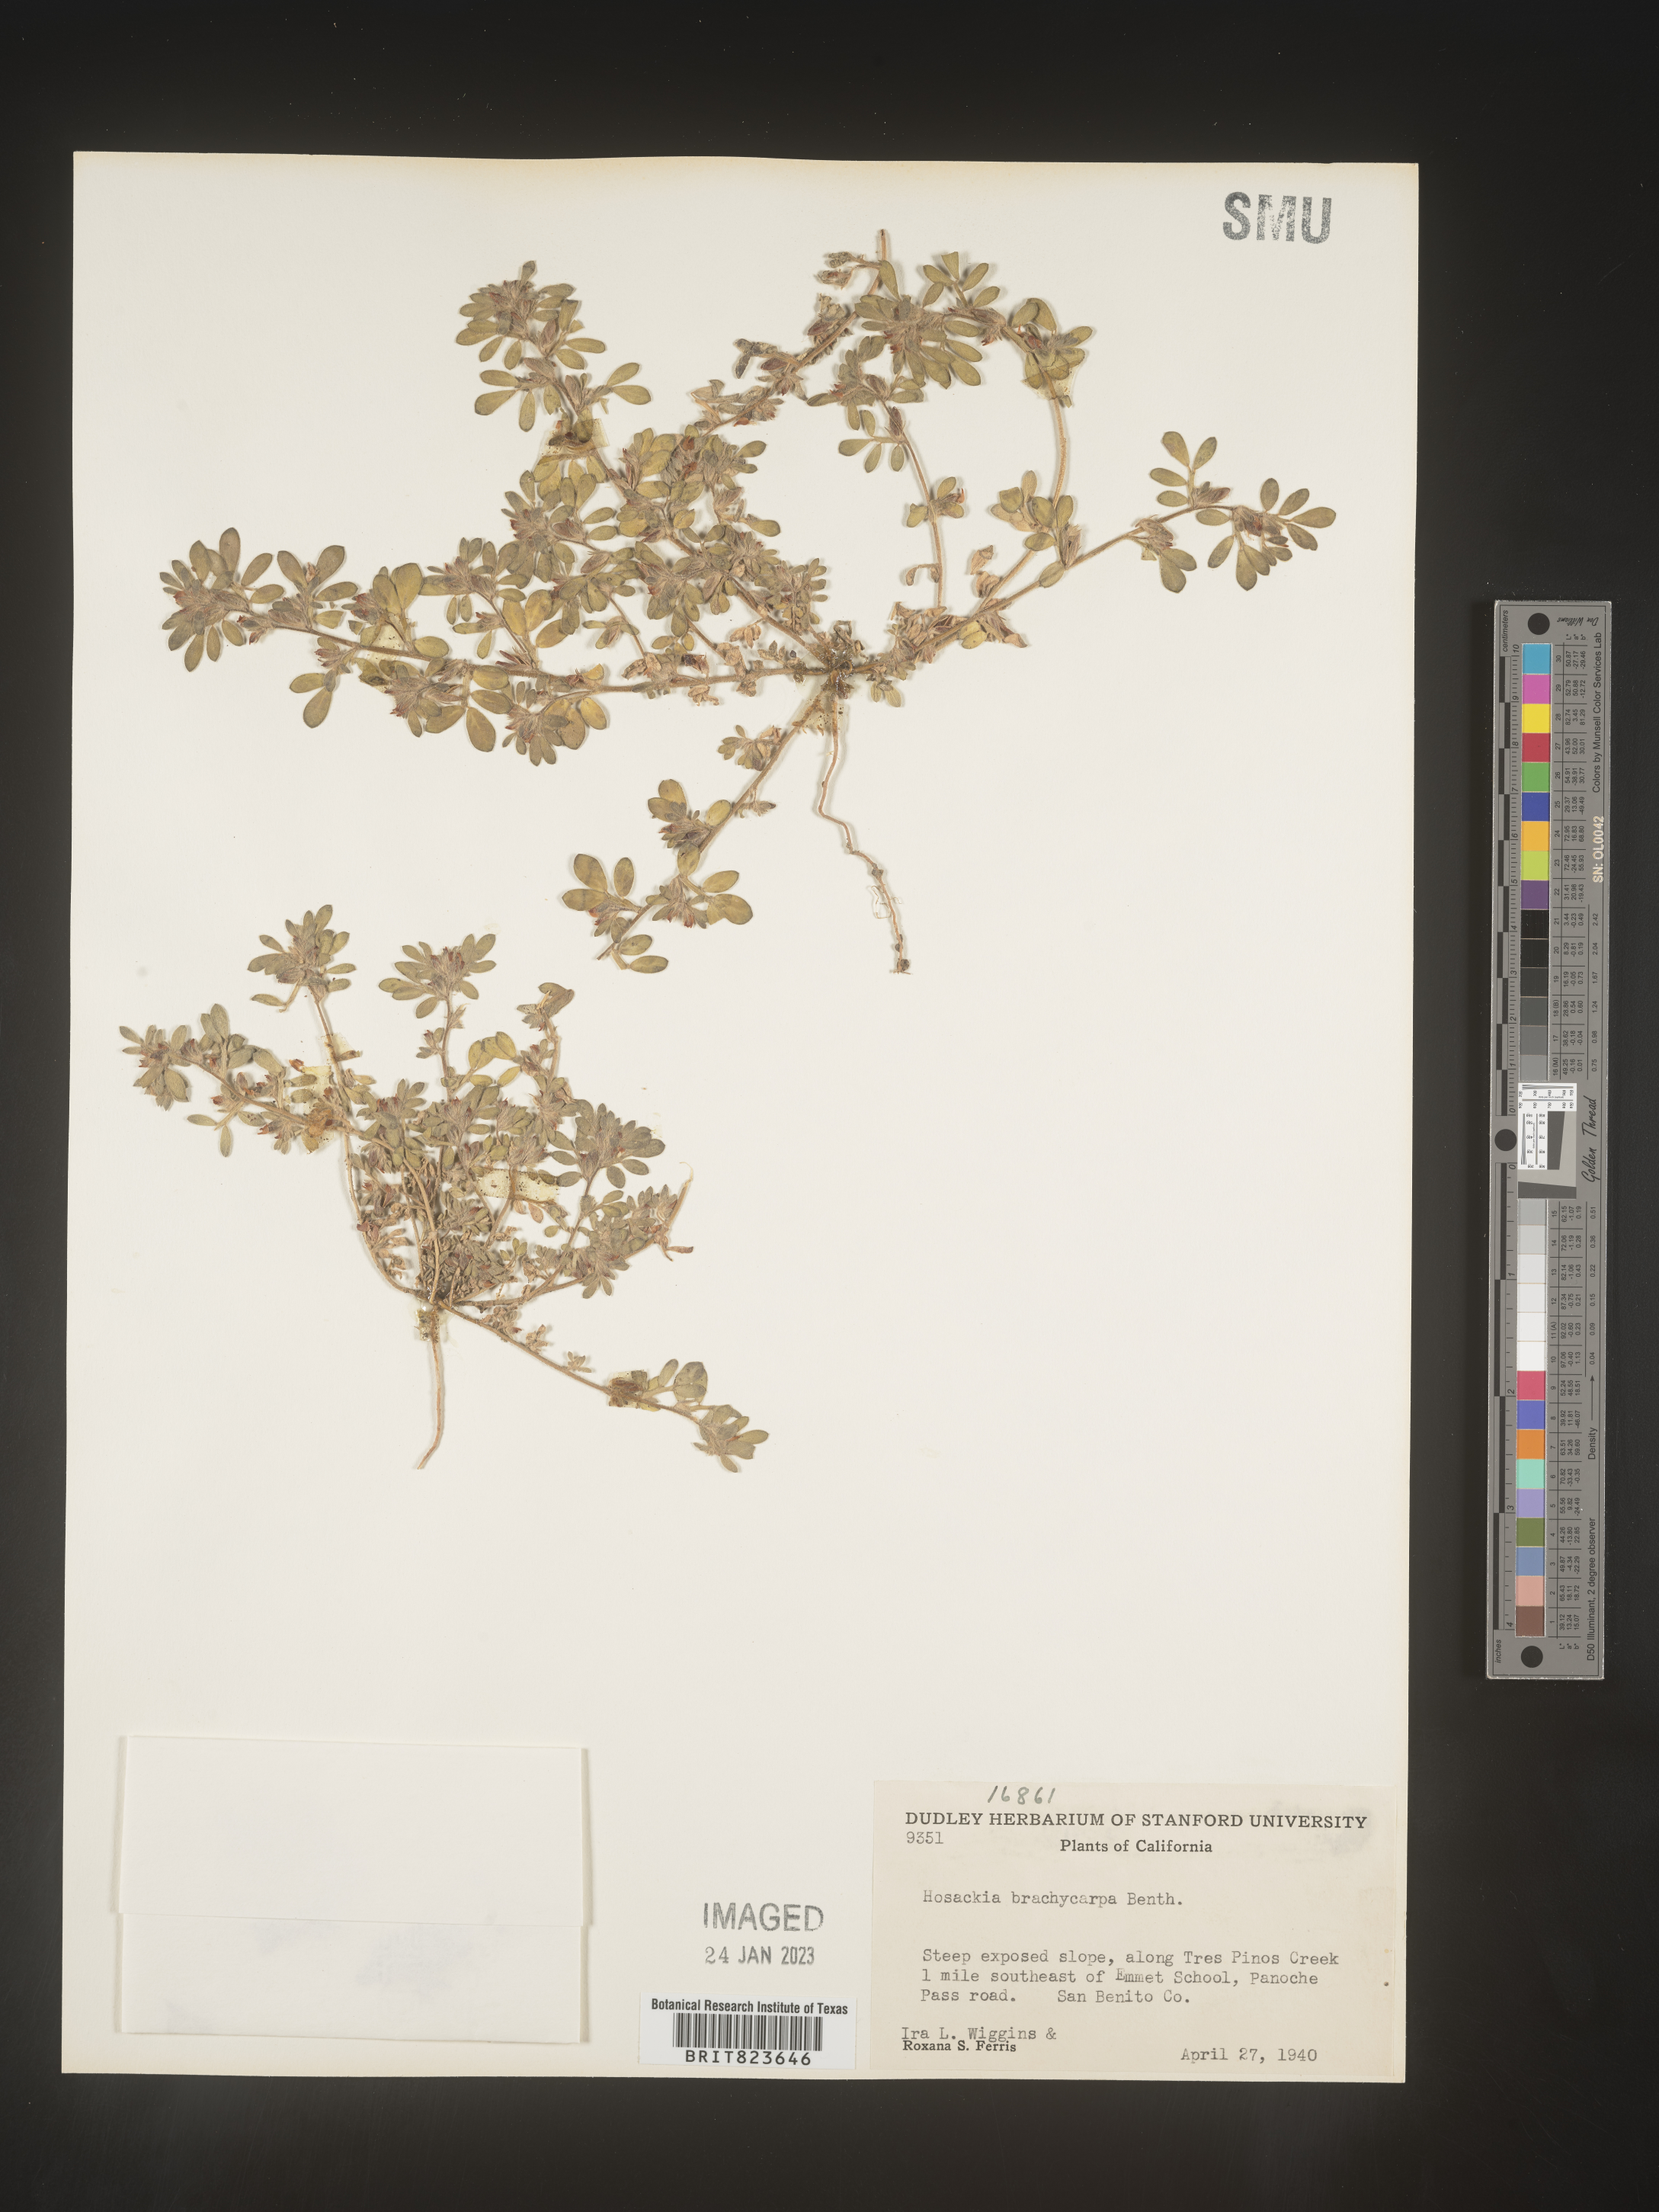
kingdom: Plantae
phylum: Tracheophyta
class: Magnoliopsida
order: Fabales
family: Fabaceae
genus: Lotus
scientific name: Lotus
